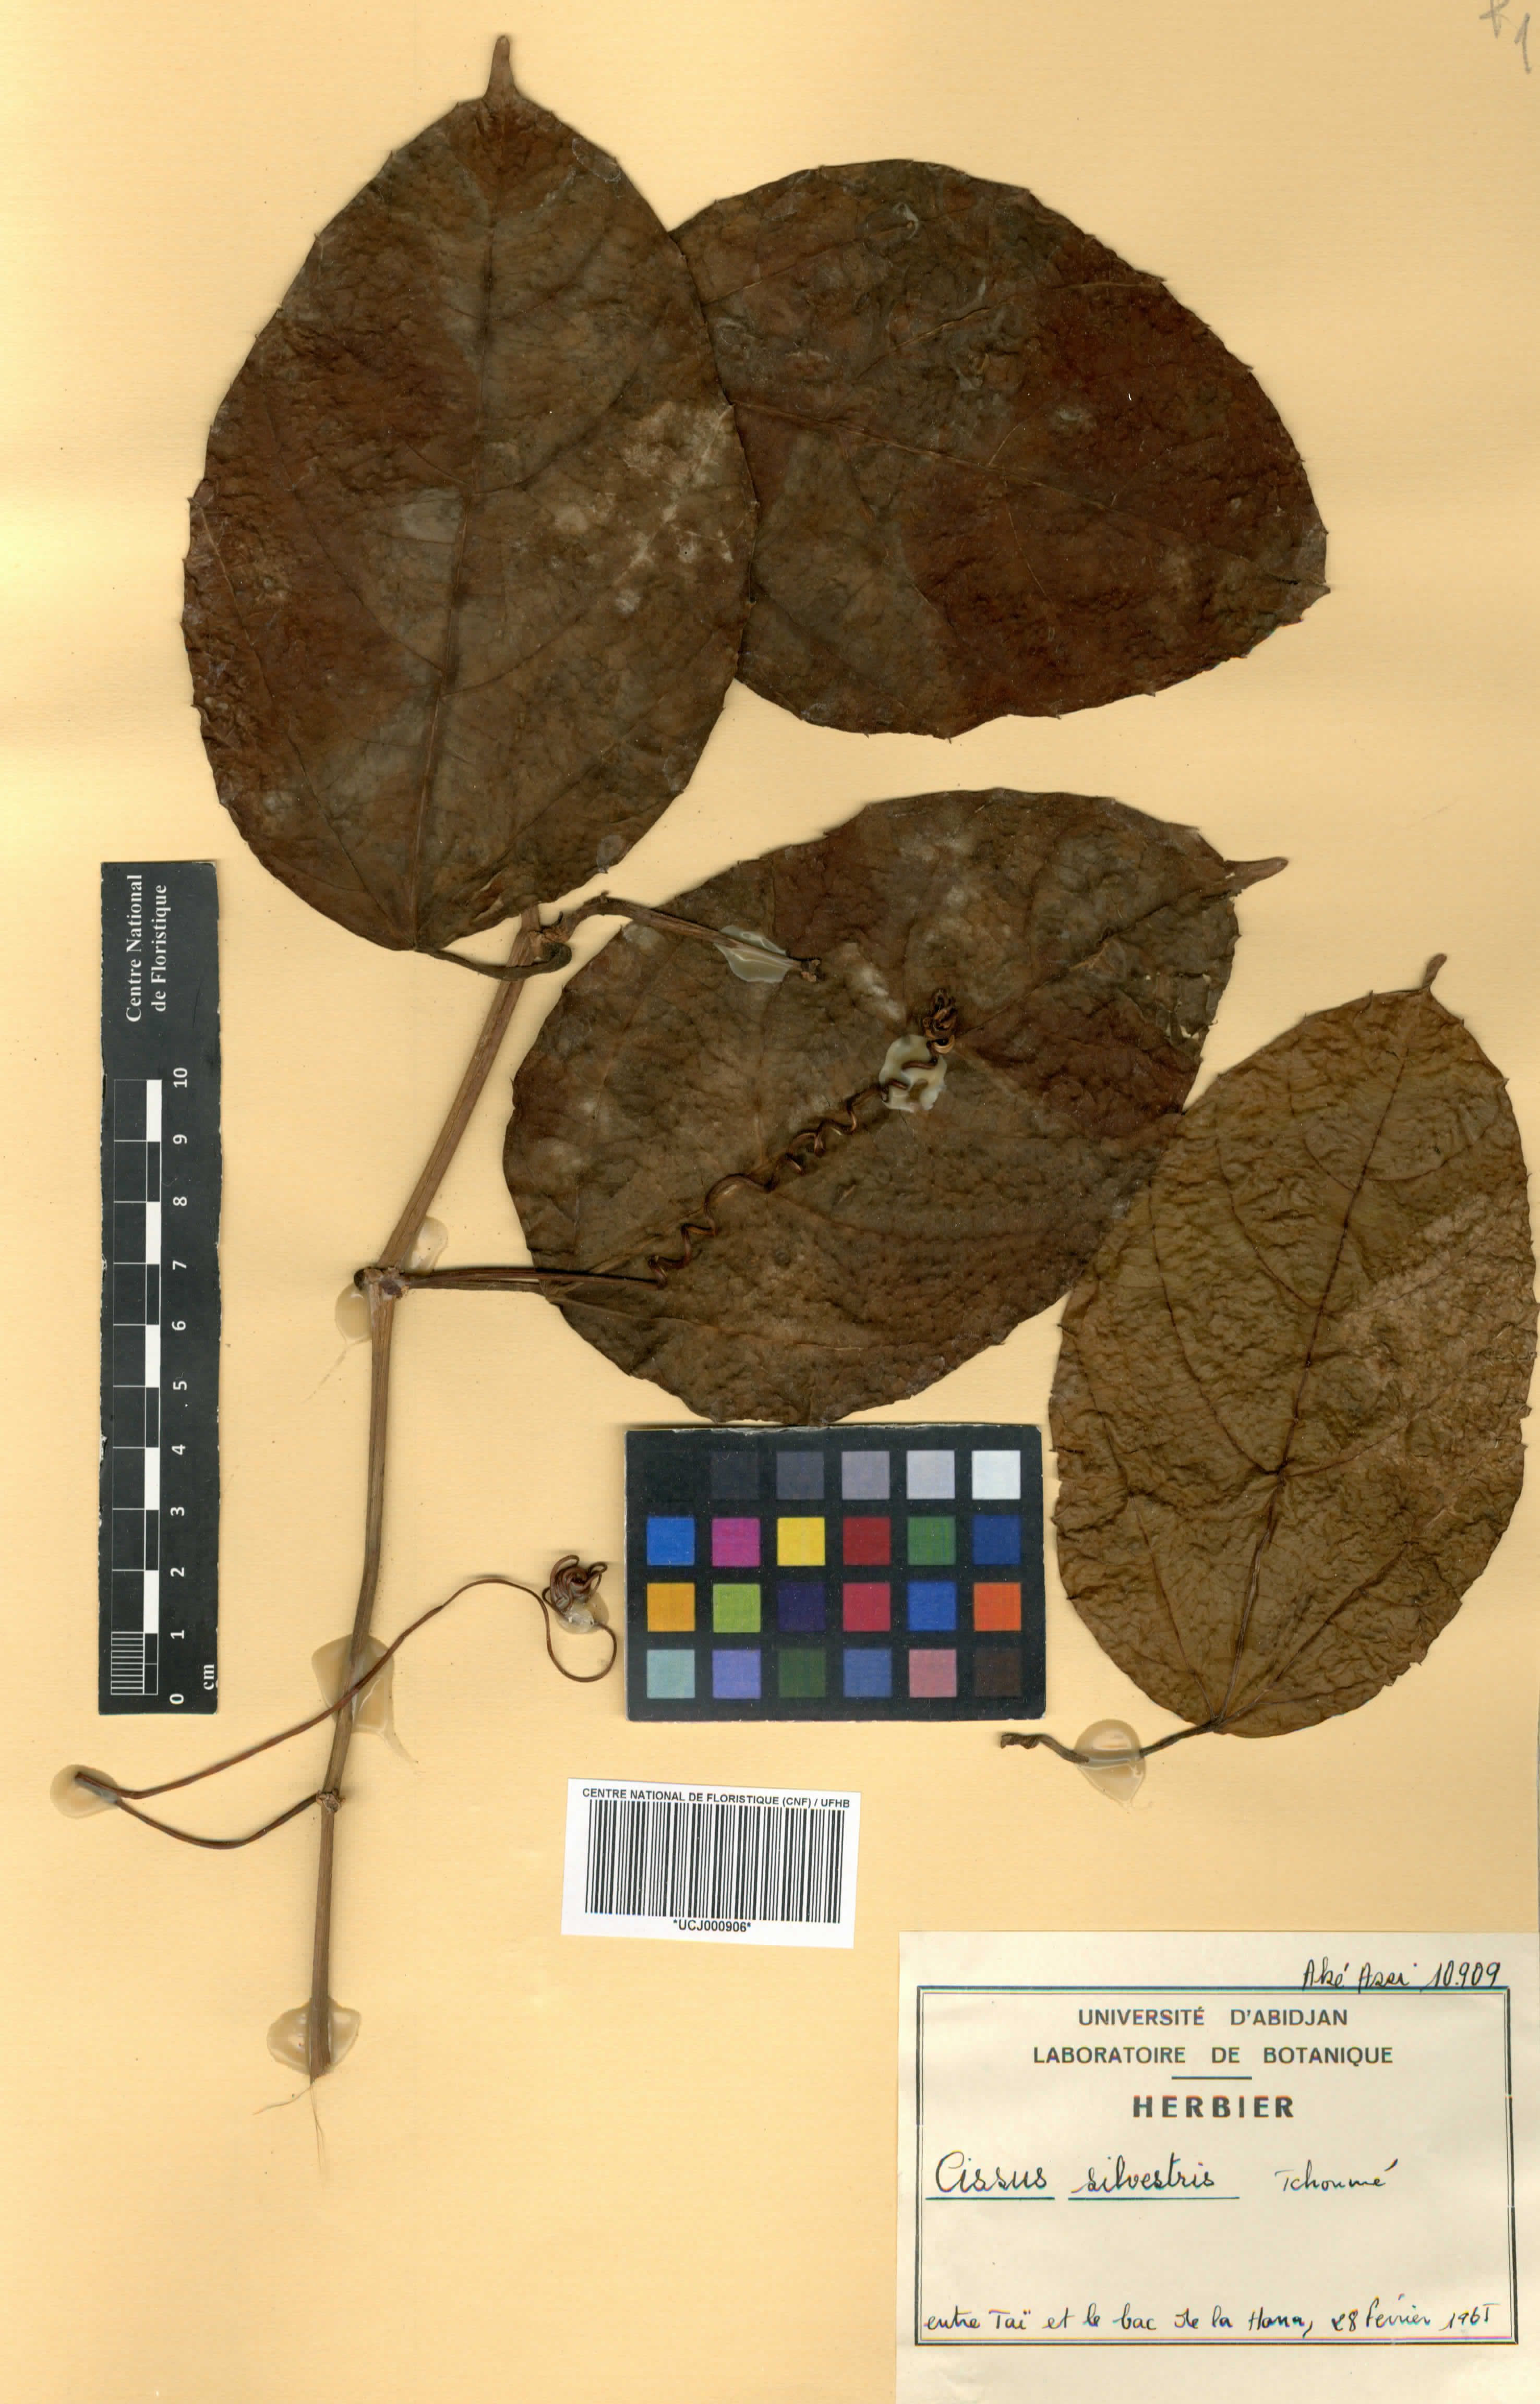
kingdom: Plantae
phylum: Tracheophyta
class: Magnoliopsida
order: Vitales
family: Vitaceae
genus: Cissus
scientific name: Cissus silvestris
